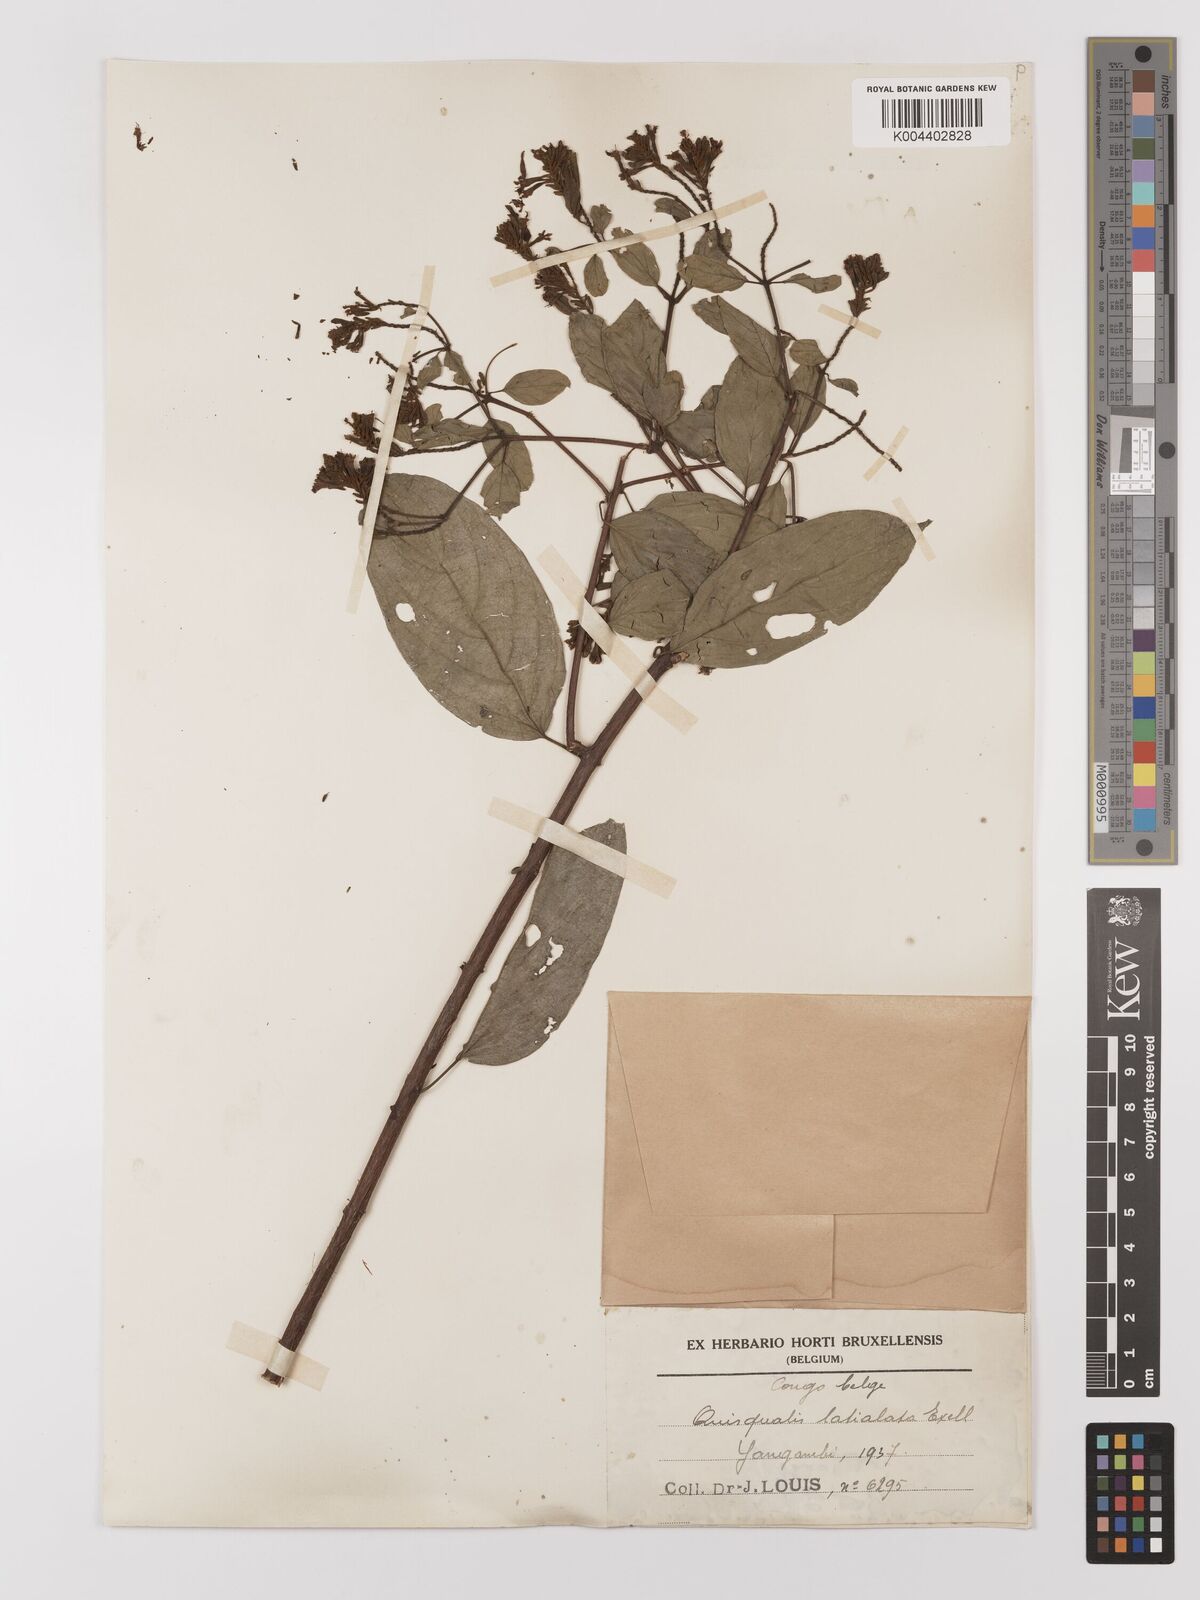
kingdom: Plantae
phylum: Tracheophyta
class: Magnoliopsida
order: Myrtales
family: Combretaceae
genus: Combretum
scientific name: Combretum latialatum
